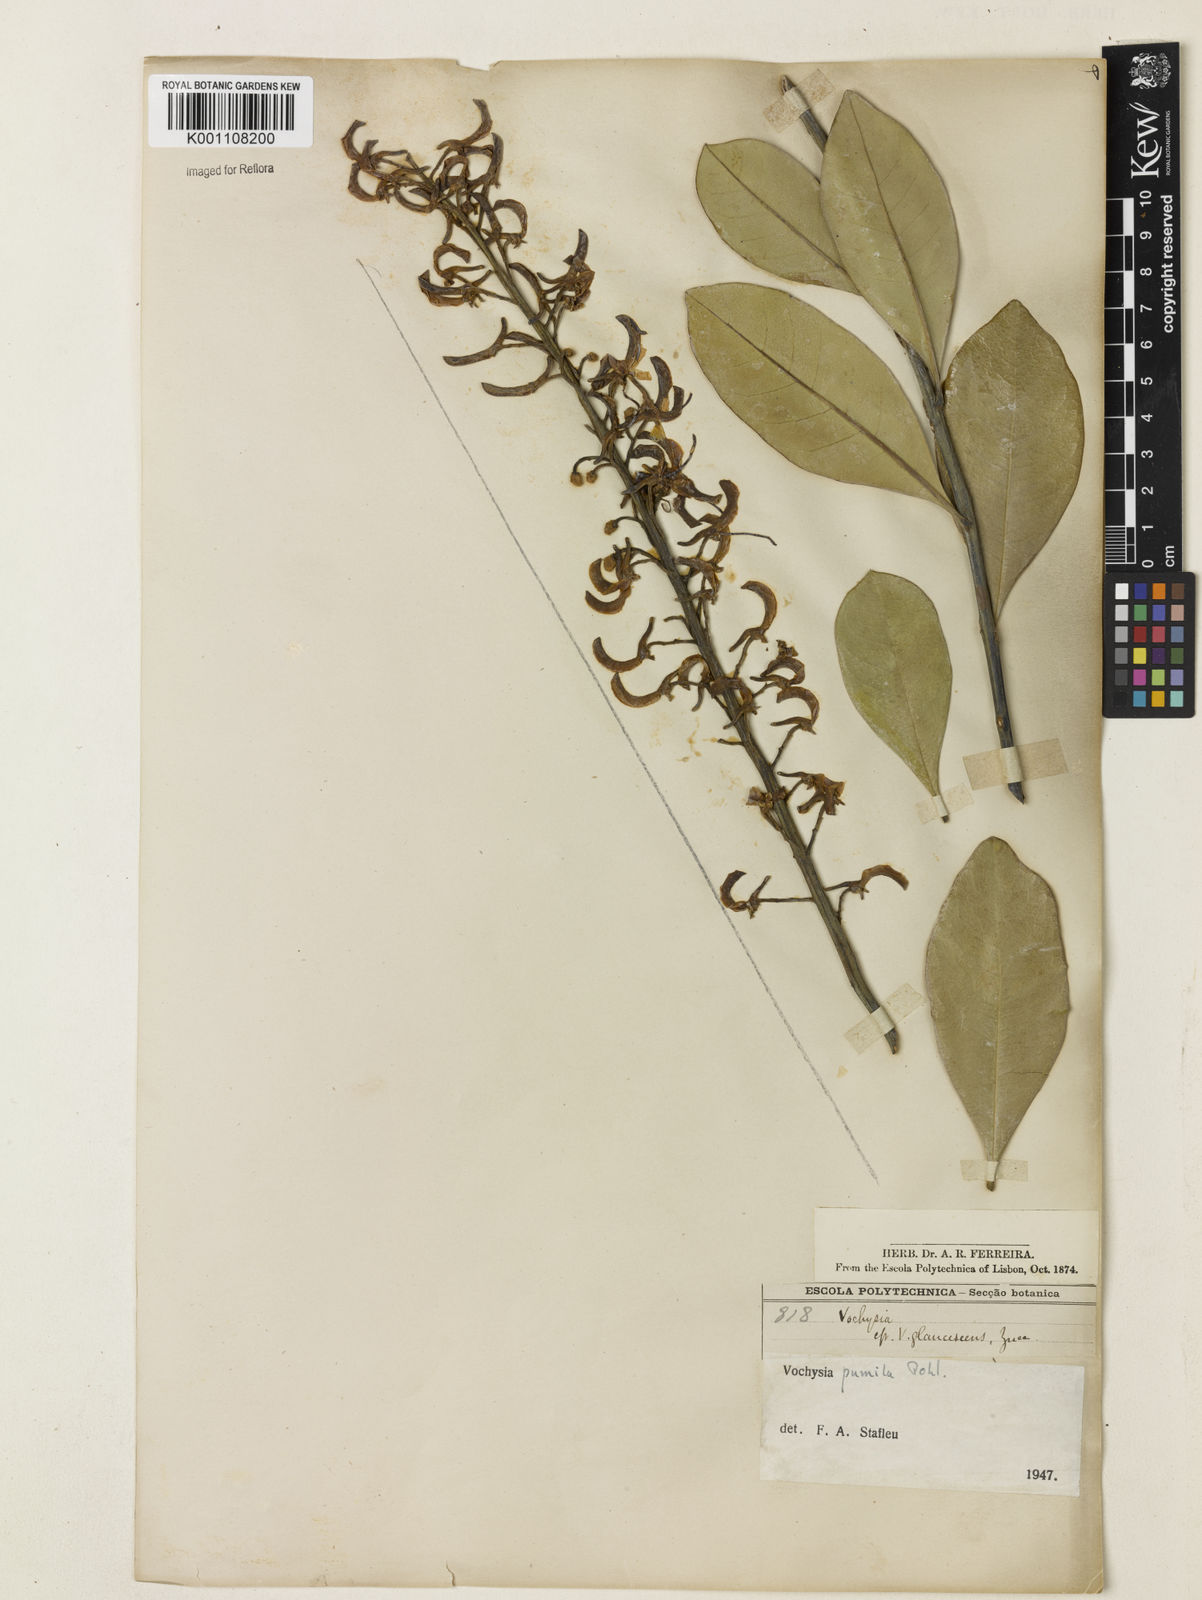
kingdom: Plantae
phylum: Tracheophyta
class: Magnoliopsida
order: Myrtales
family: Vochysiaceae
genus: Vochysia
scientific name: Vochysia pumila
